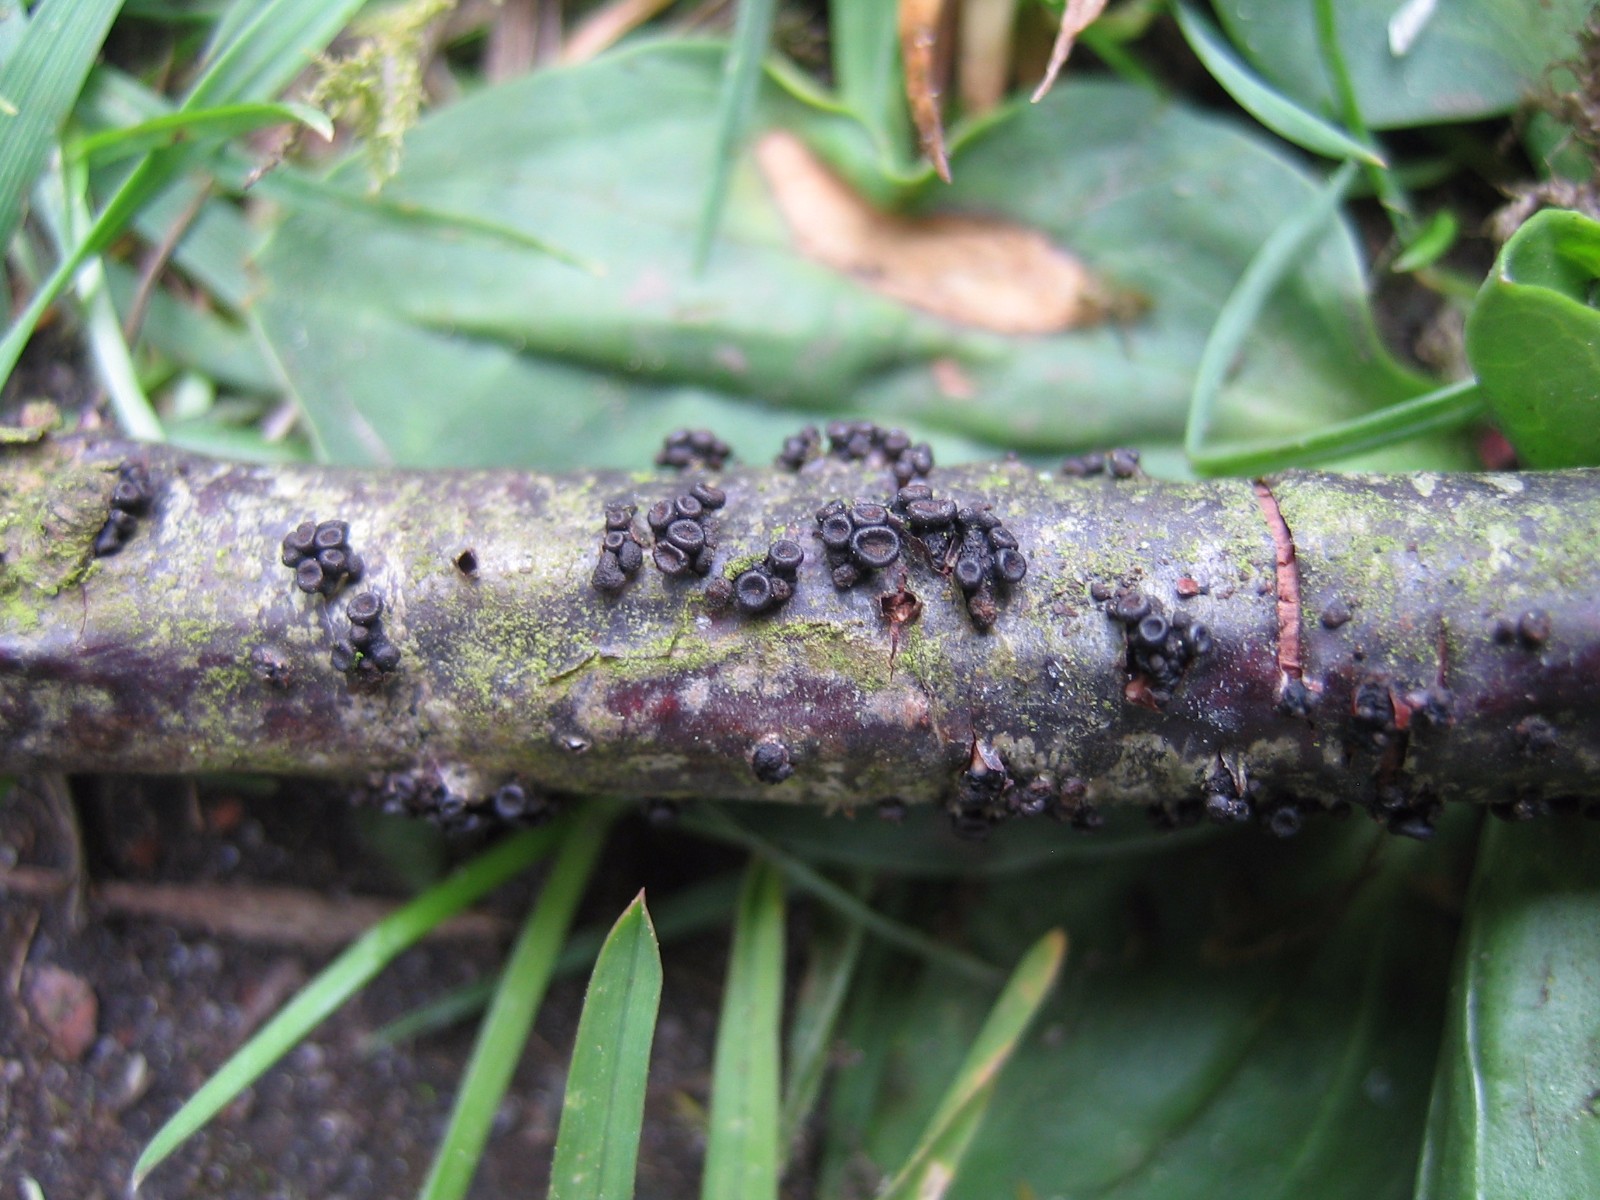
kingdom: Fungi
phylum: Ascomycota
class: Leotiomycetes
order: Helotiales
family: Godroniaceae
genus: Godronia
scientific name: Godronia ribis
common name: ribs-urneskive
